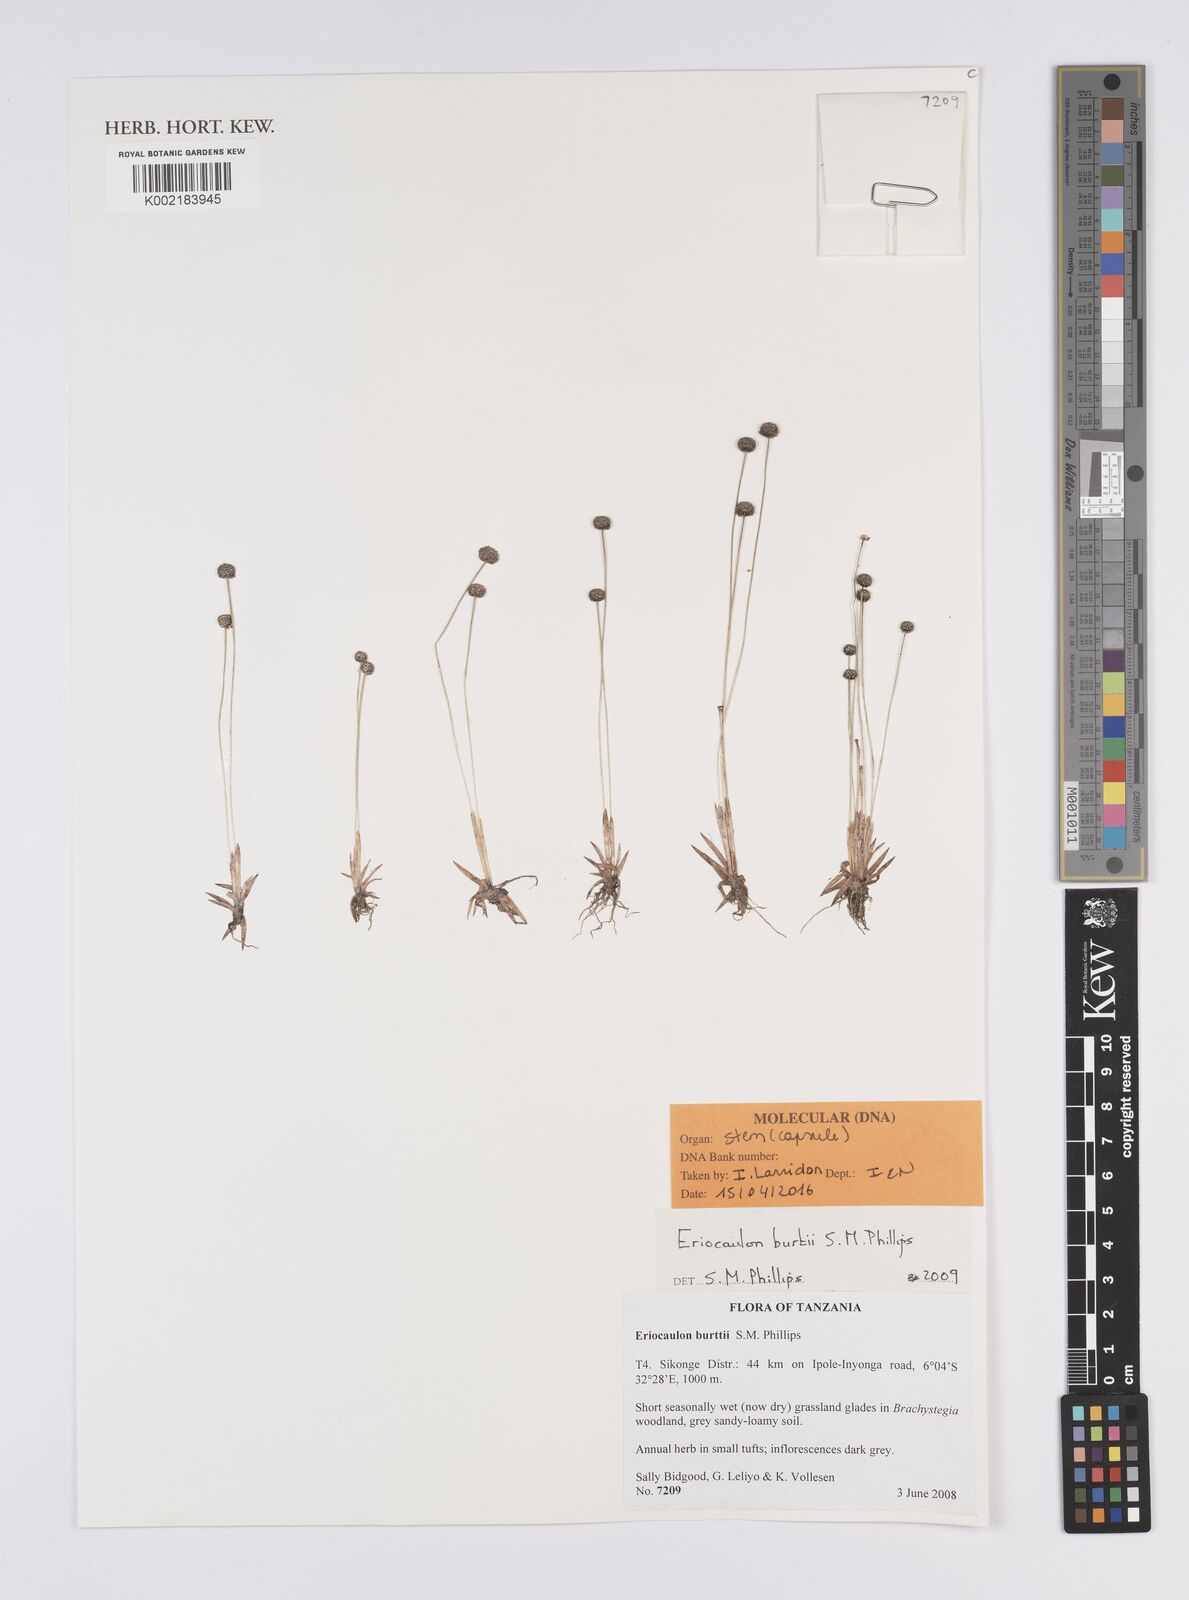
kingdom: Plantae
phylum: Tracheophyta
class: Liliopsida
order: Poales
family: Eriocaulaceae
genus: Eriocaulon
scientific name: Eriocaulon burttii
